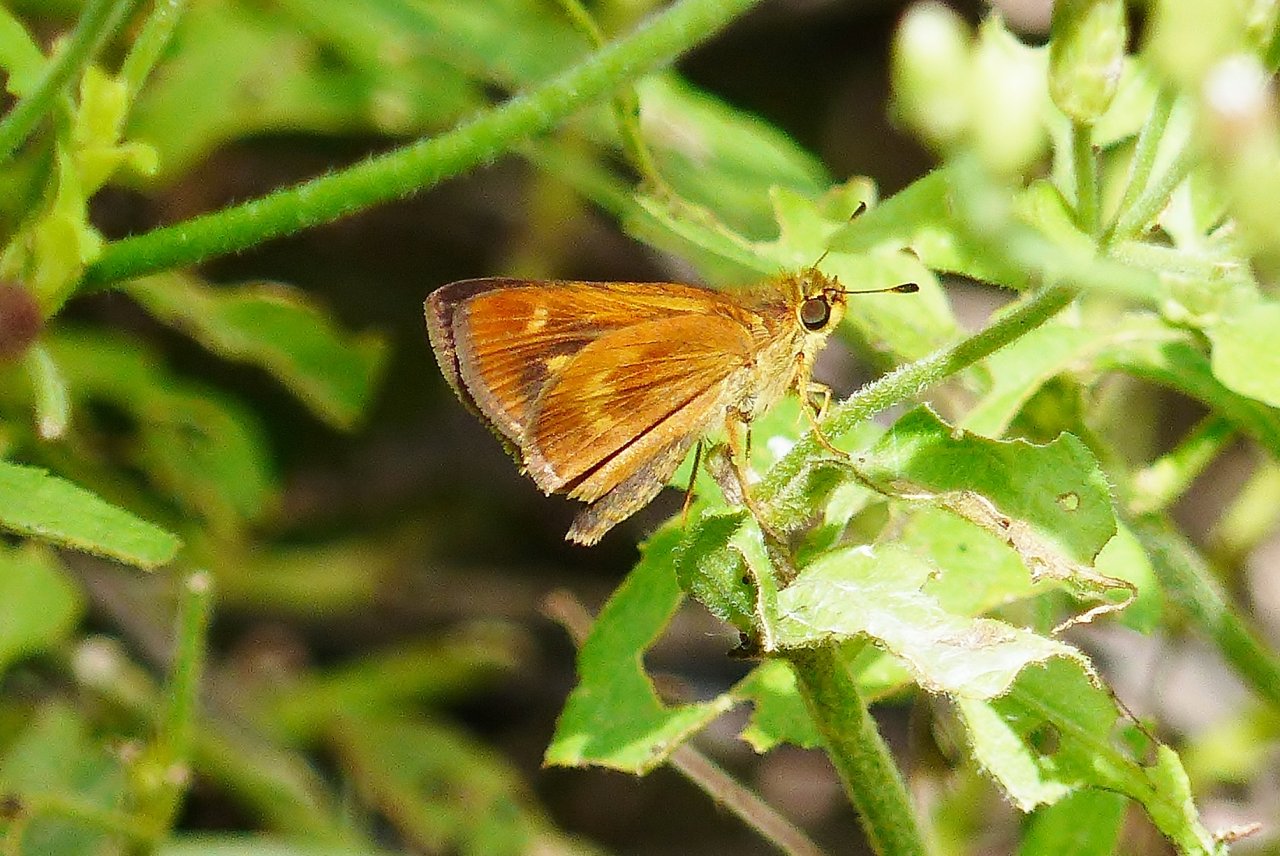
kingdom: Animalia
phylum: Arthropoda
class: Insecta
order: Lepidoptera
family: Hesperiidae
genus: Wallengrenia
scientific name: Wallengrenia otho
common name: Southern Broken-Dash
